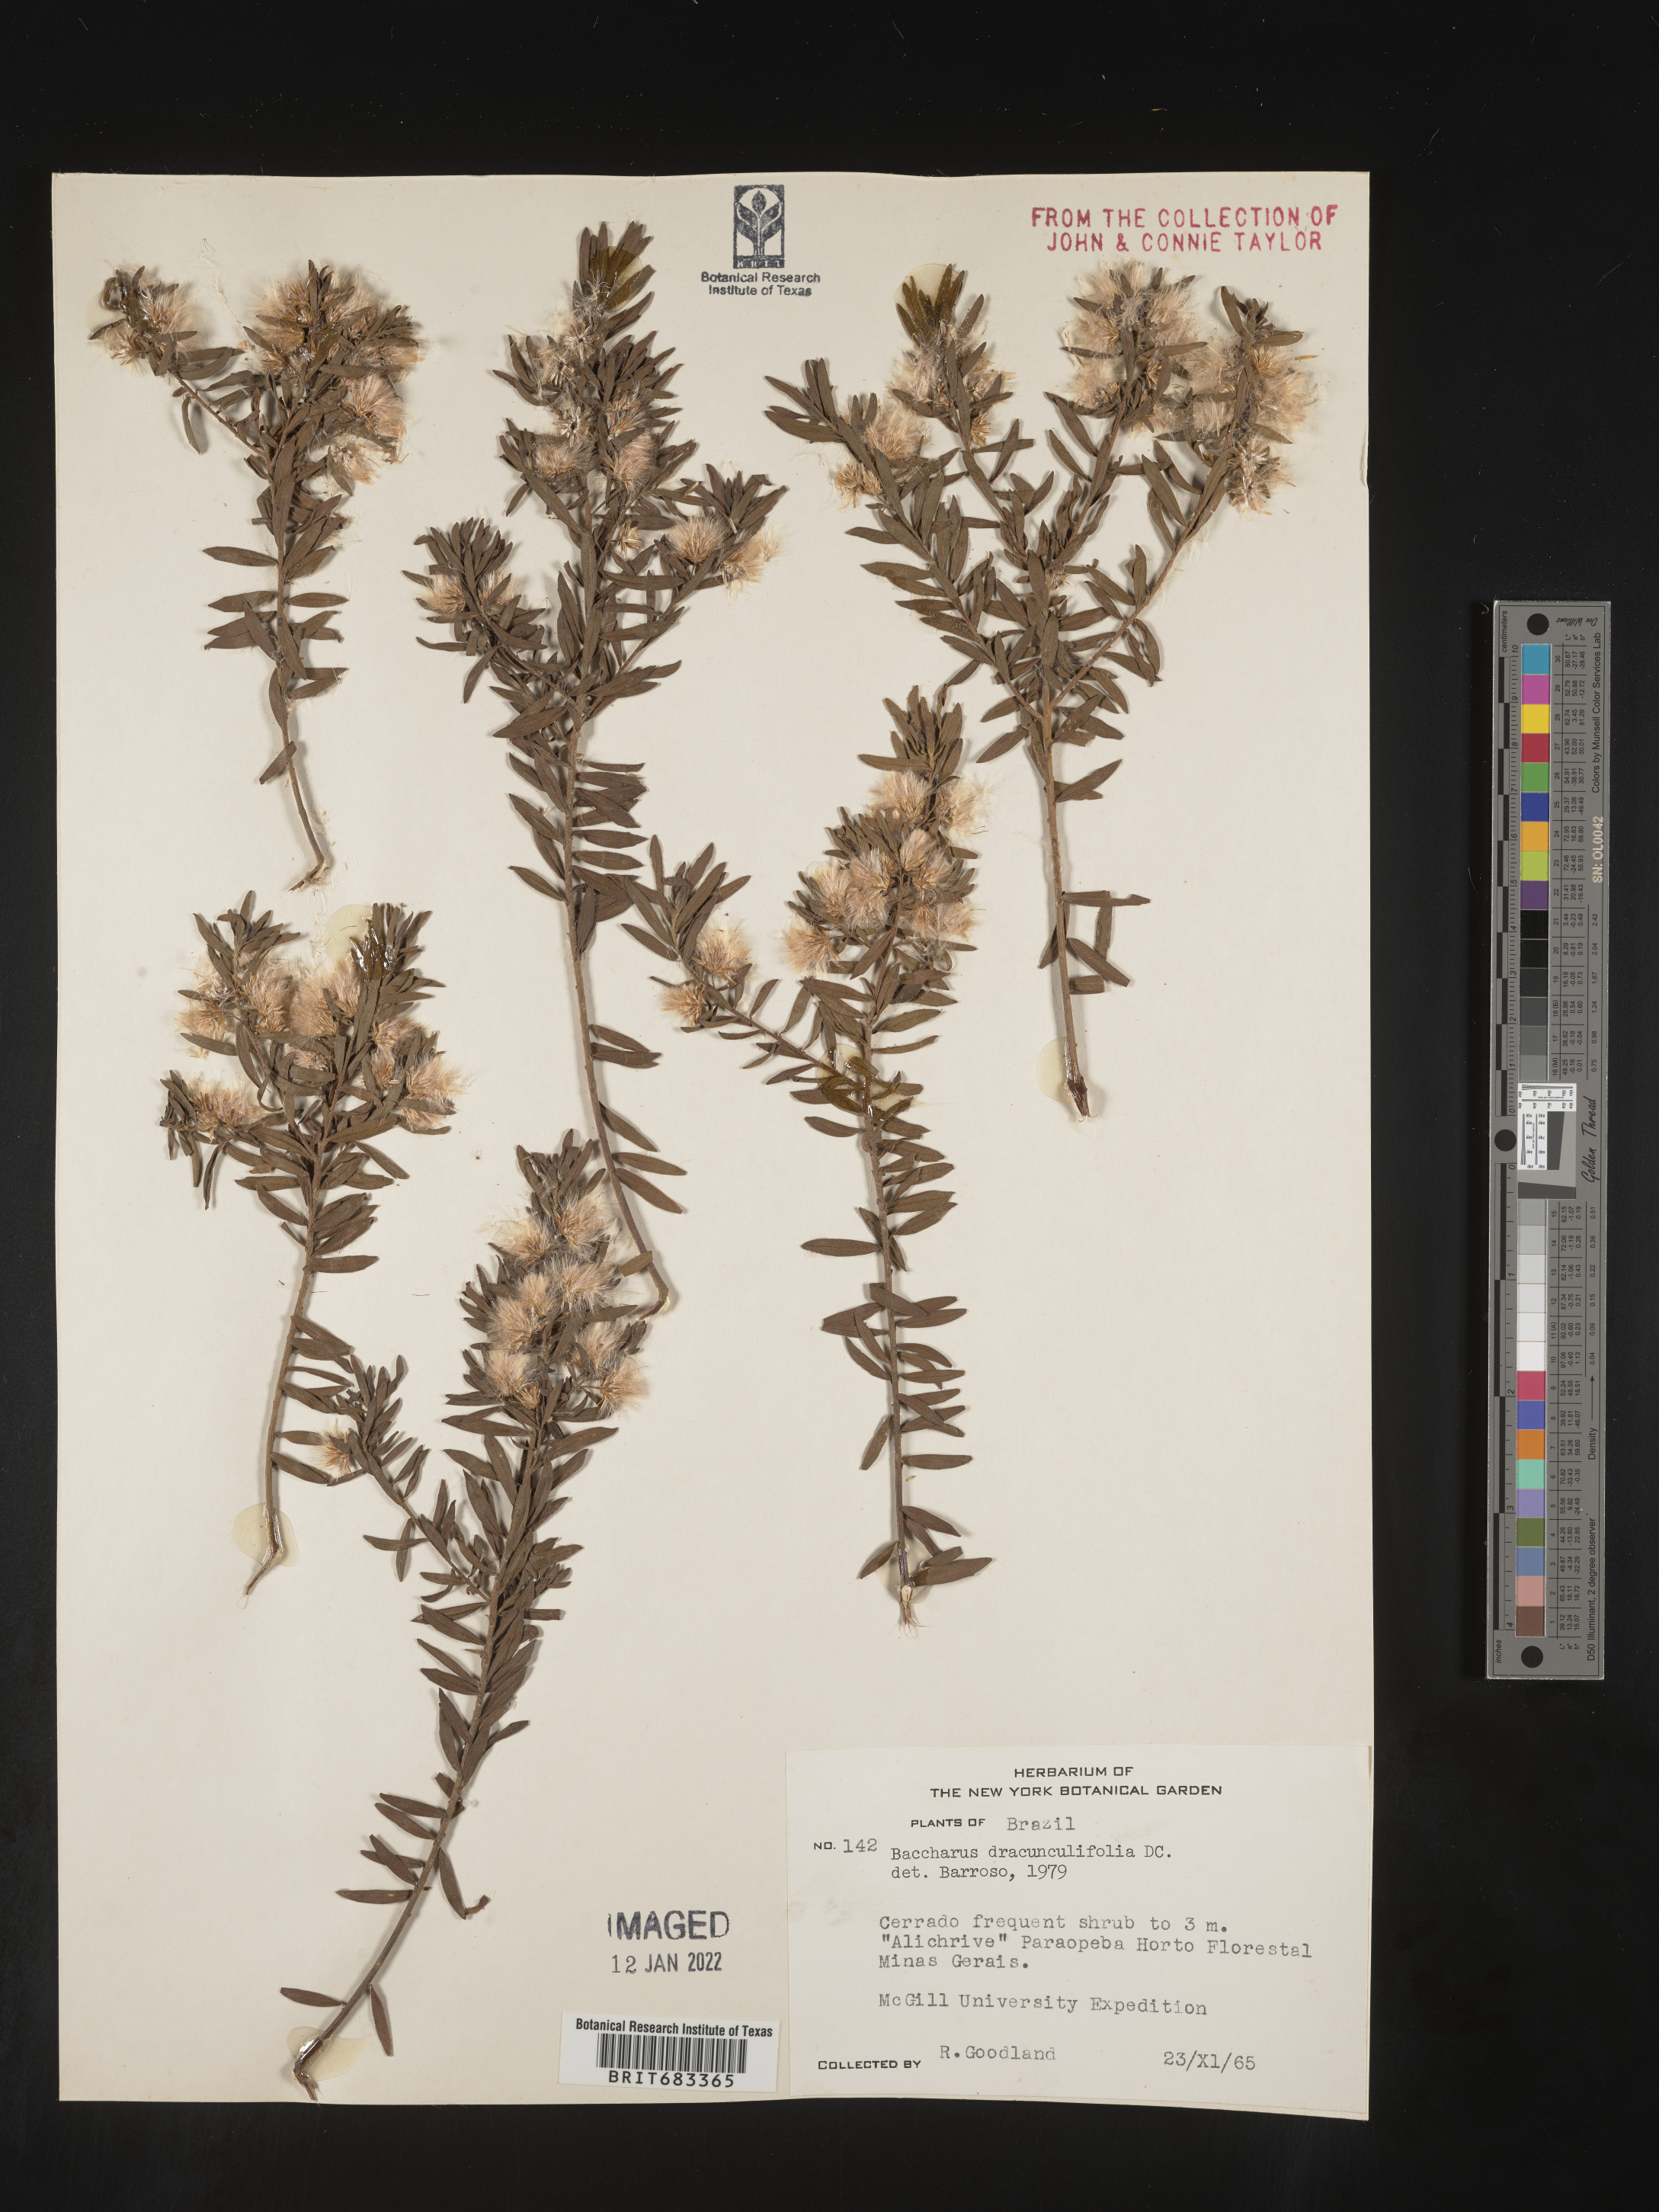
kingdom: Plantae
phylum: Tracheophyta
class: Magnoliopsida
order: Asterales
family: Asteraceae
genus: Baccharis
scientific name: Baccharis
